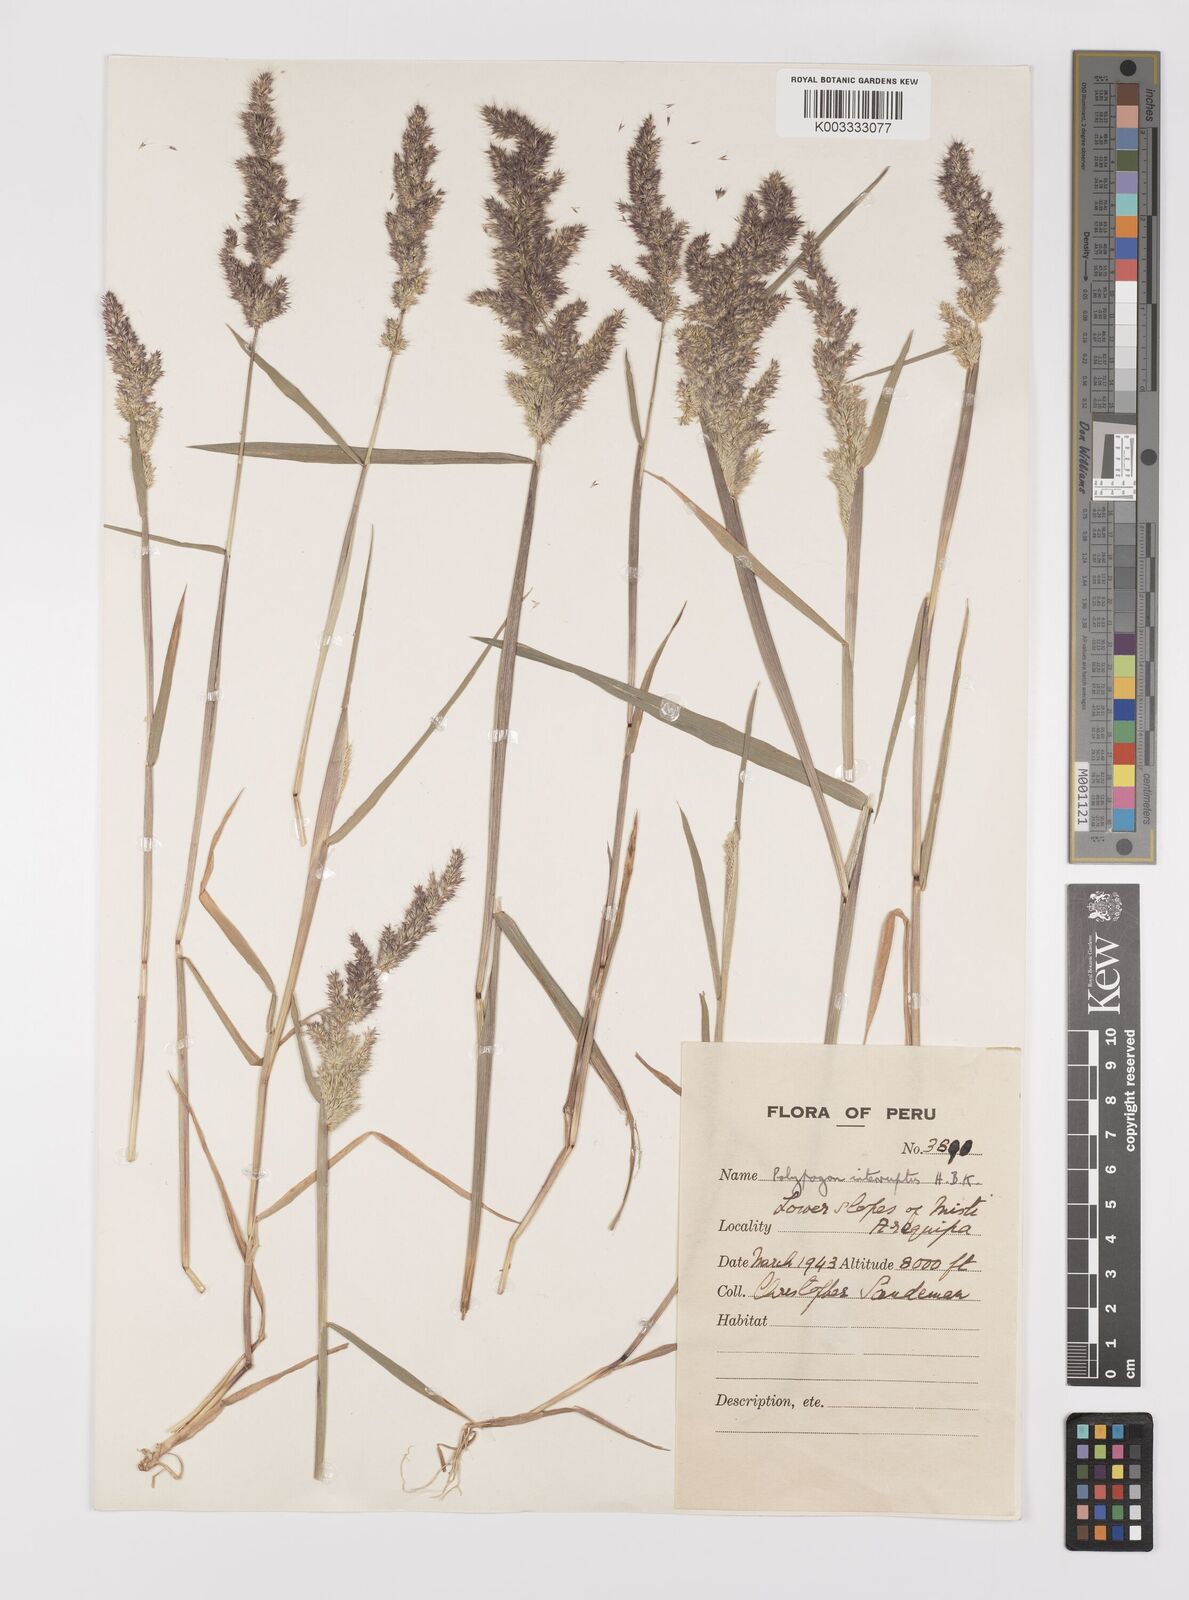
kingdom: Plantae
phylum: Tracheophyta
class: Liliopsida
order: Poales
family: Poaceae
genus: Polypogon
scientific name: Polypogon interruptus
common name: Ditch polypogon
